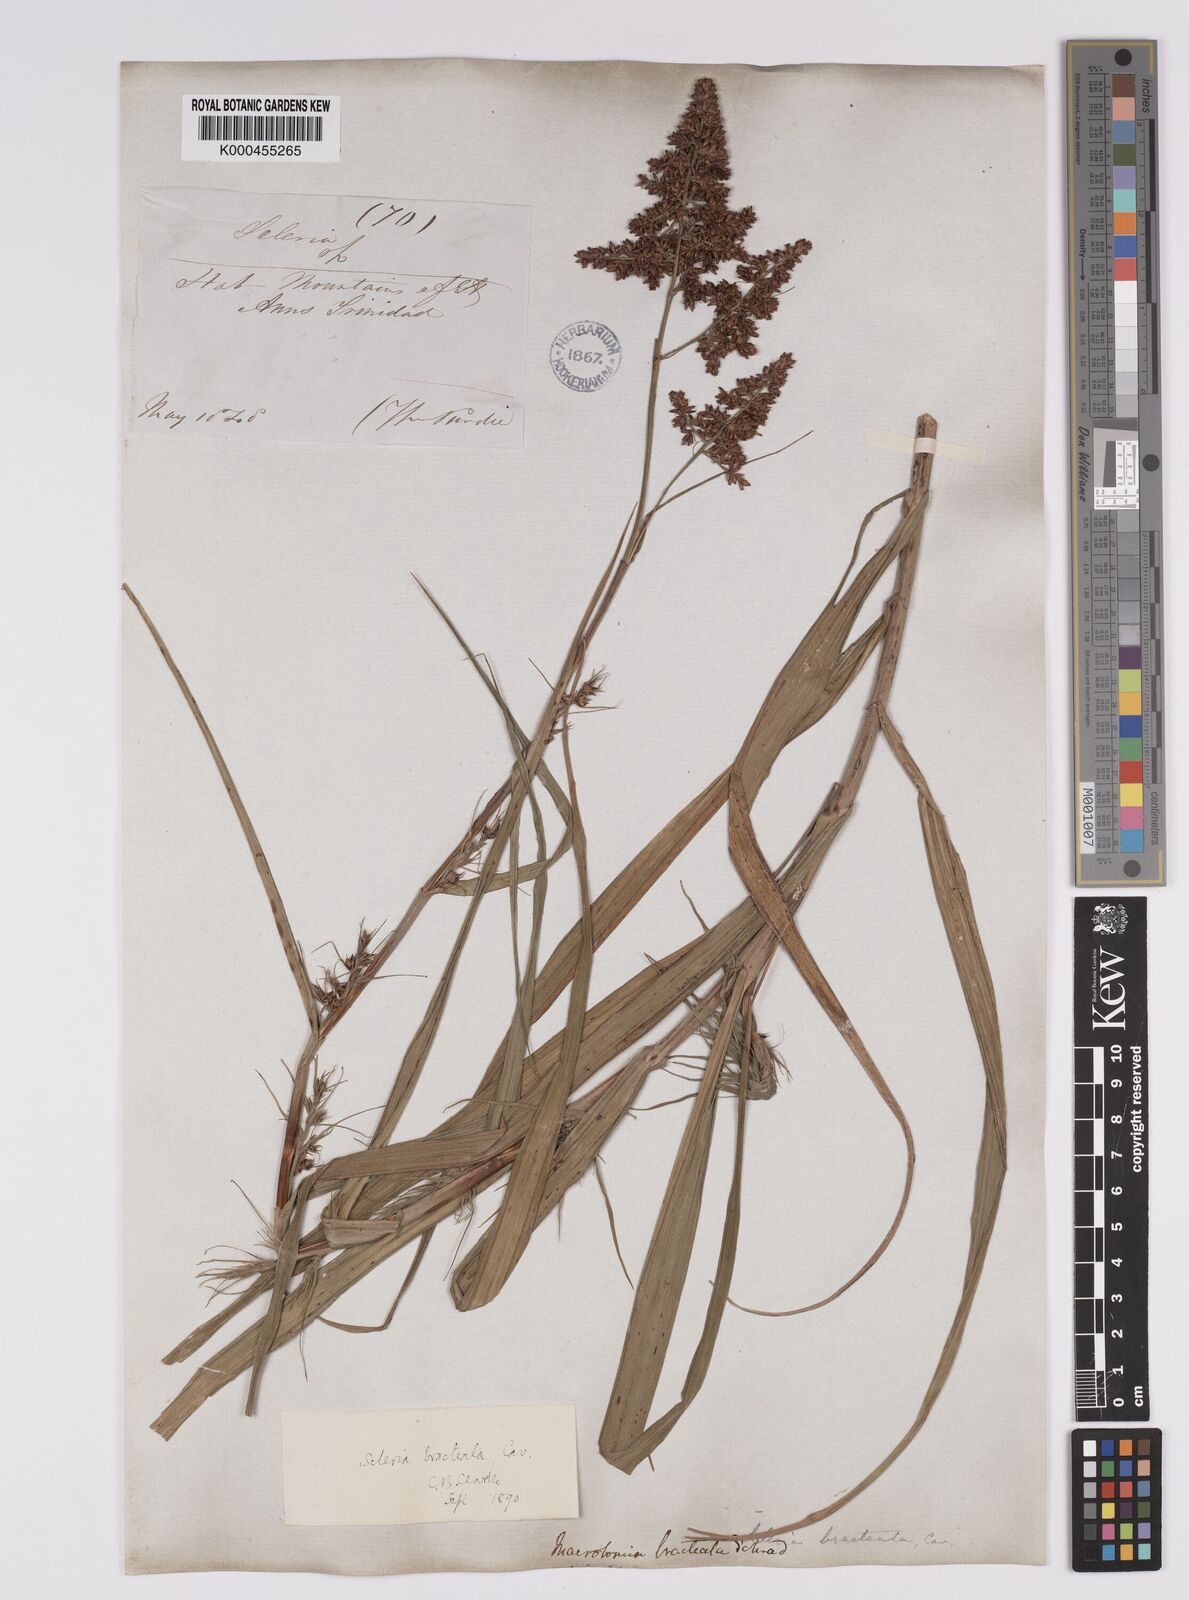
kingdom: Plantae
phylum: Tracheophyta
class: Liliopsida
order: Poales
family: Cyperaceae
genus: Scleria
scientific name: Scleria bracteata
